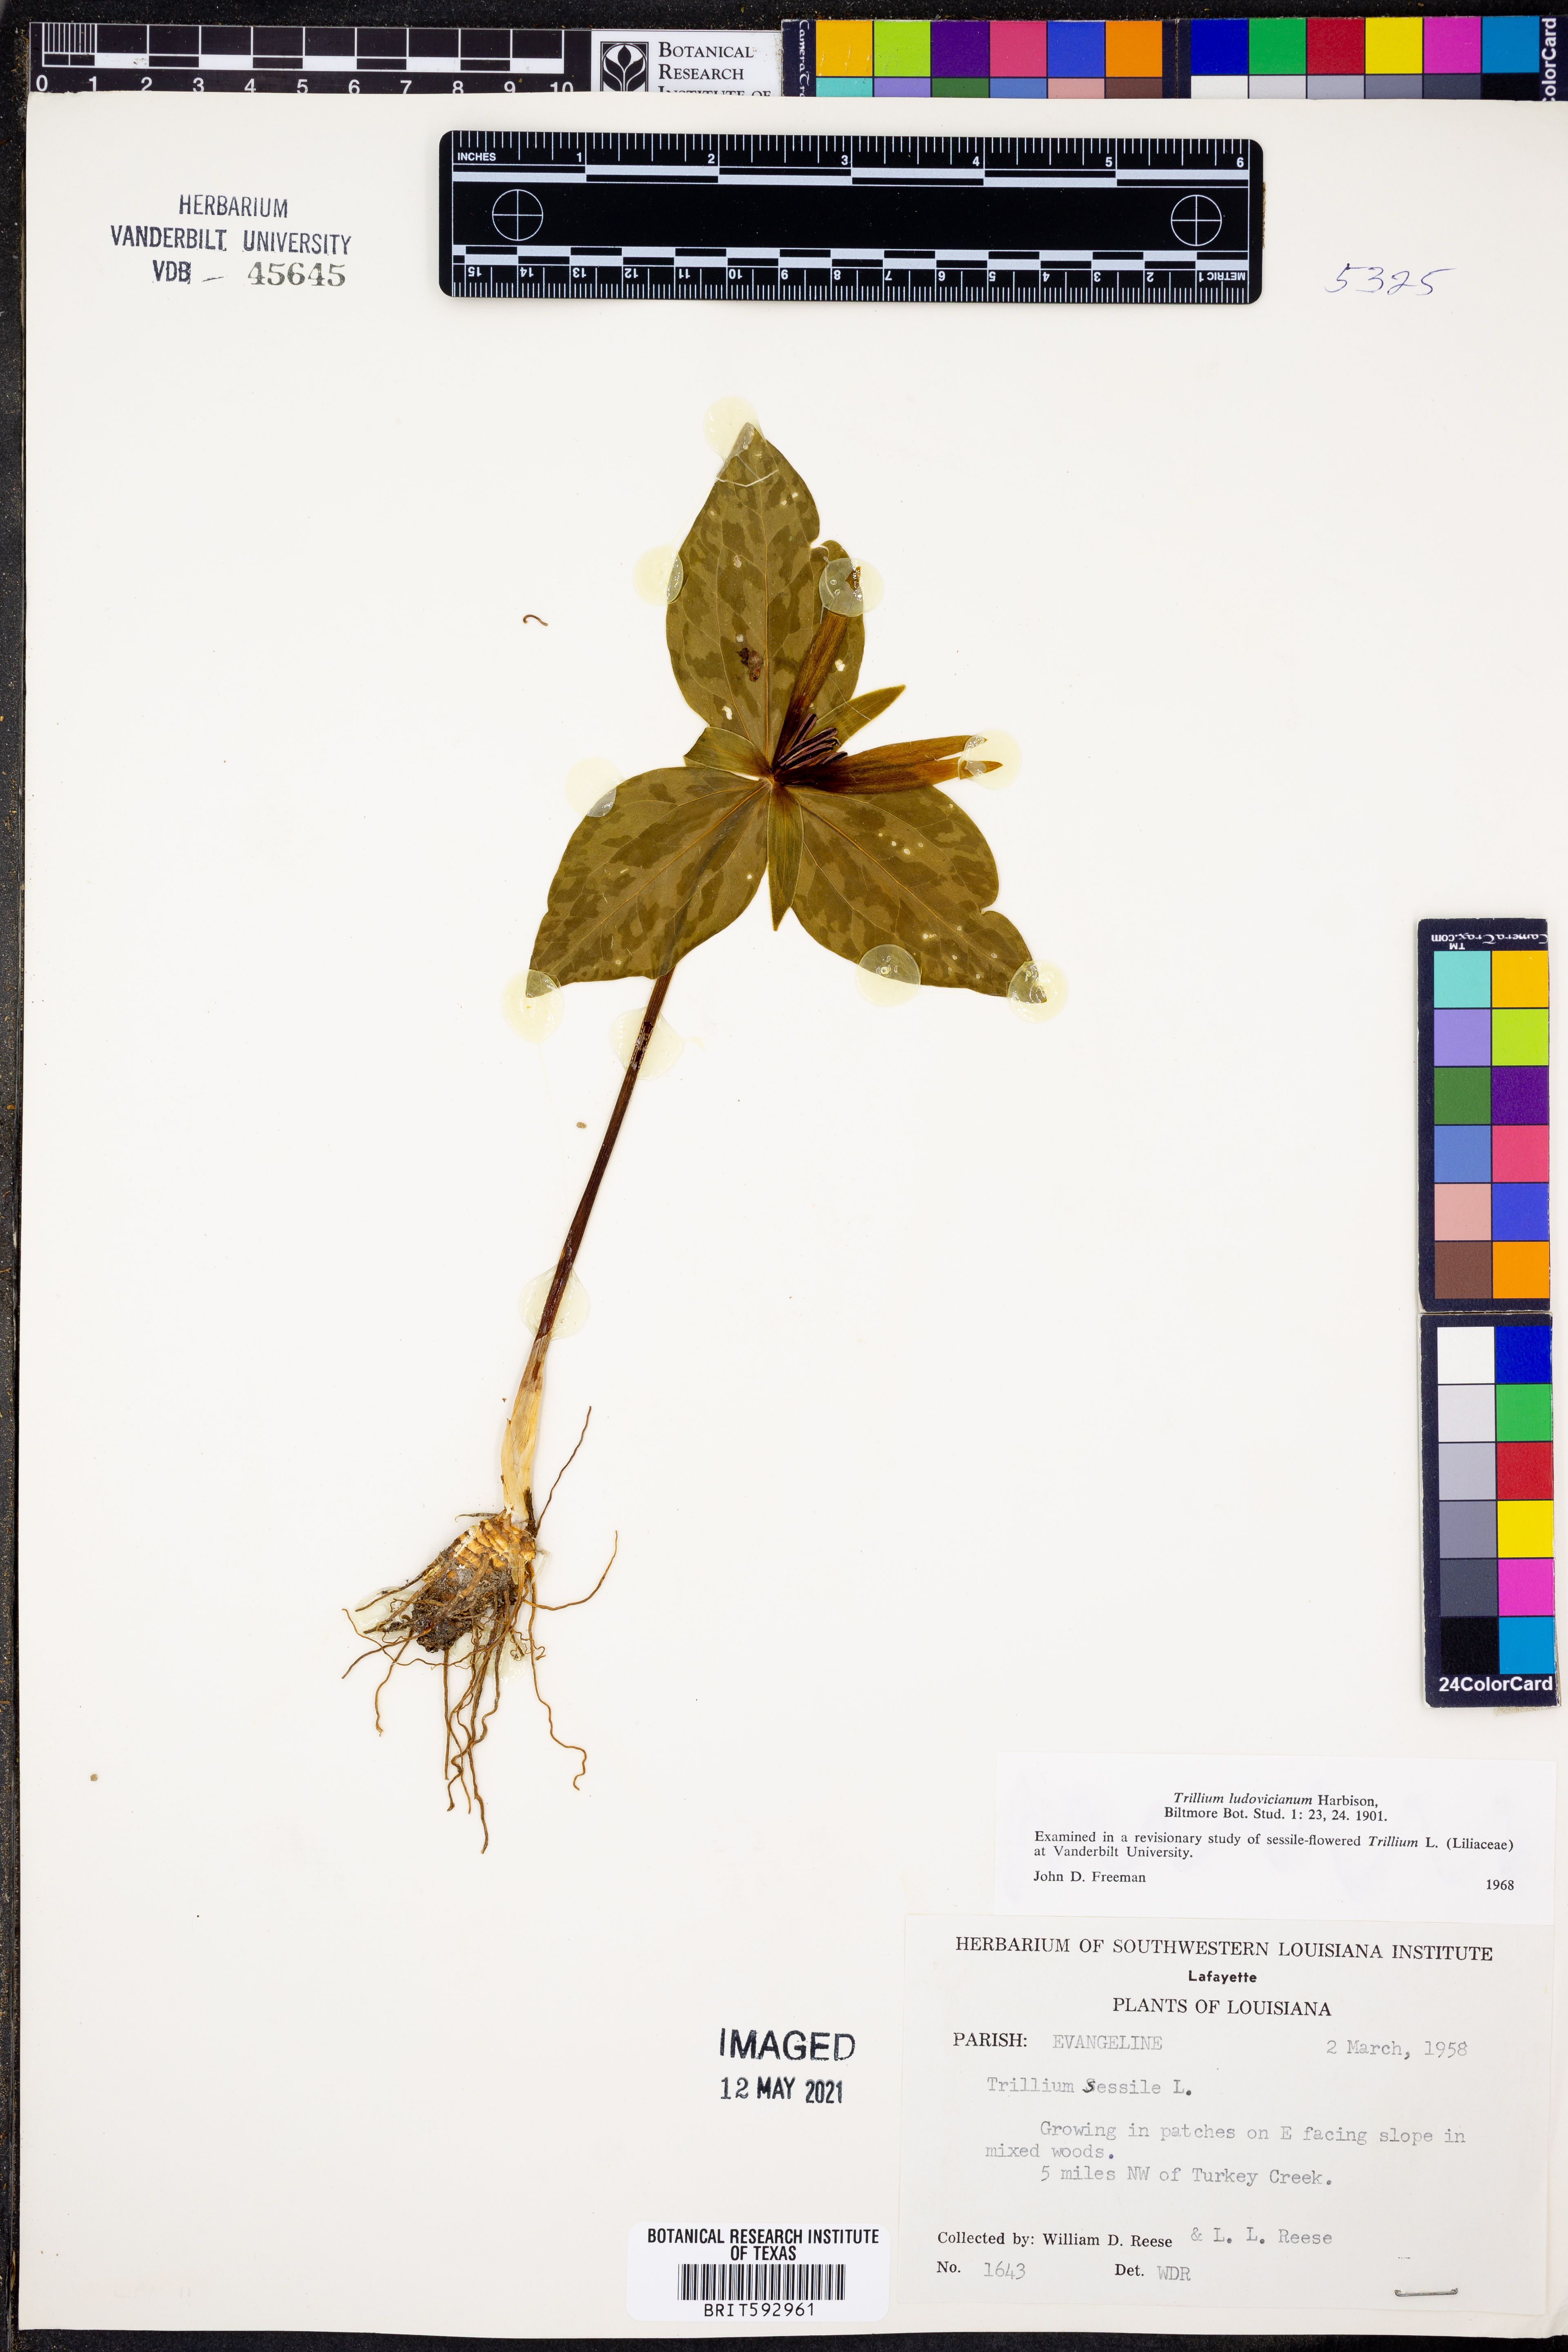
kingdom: Plantae
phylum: Tracheophyta
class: Liliopsida
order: Liliales
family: Melanthiaceae
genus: Trillium
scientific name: Trillium ludovicianum
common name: Louisiana toadshade
